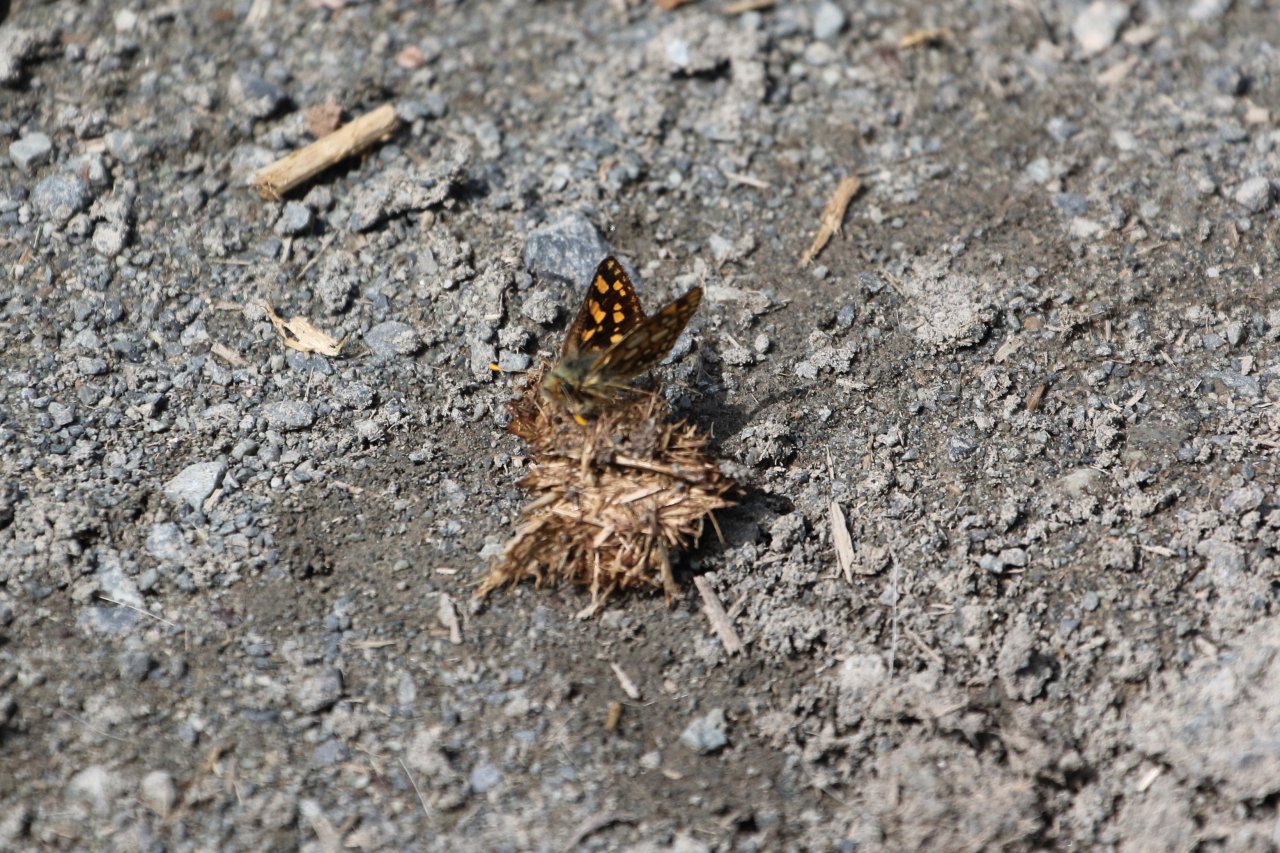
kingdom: Animalia
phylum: Arthropoda
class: Insecta
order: Lepidoptera
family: Hesperiidae
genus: Carterocephalus
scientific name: Carterocephalus palaemon
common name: Chequered Skipper
